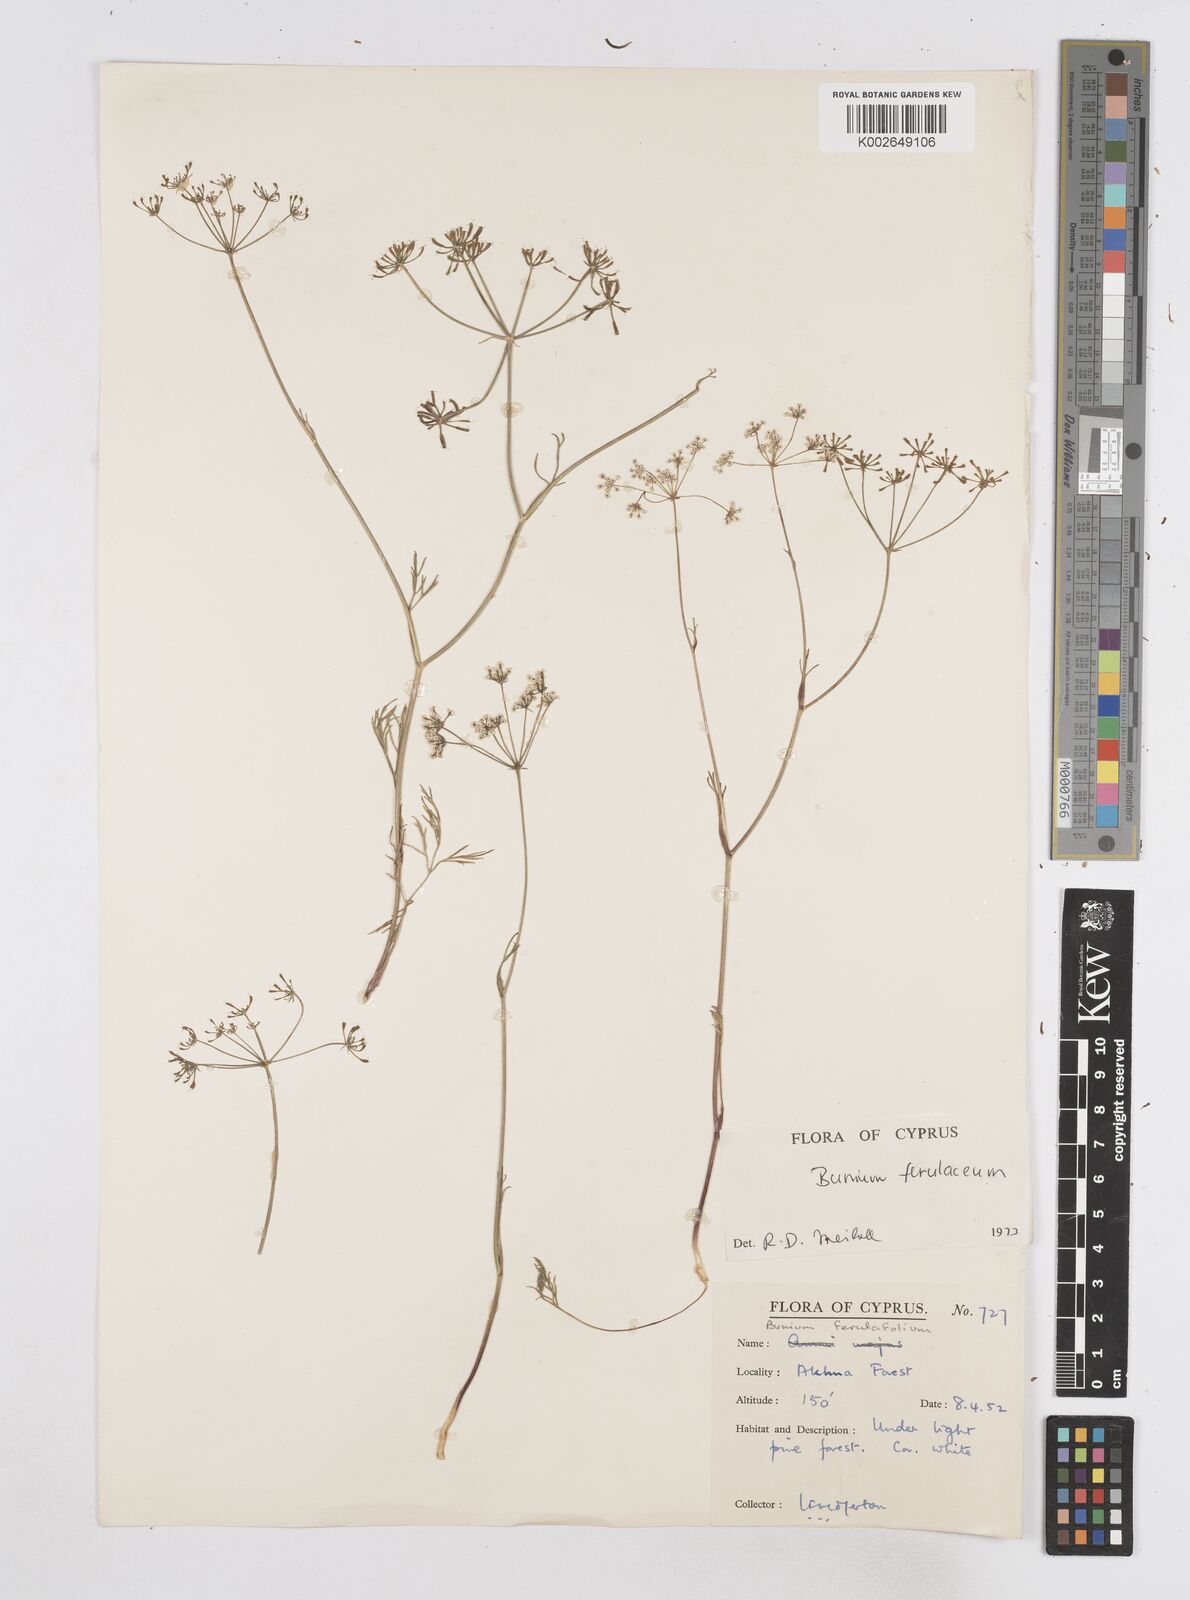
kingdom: Plantae
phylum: Tracheophyta
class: Magnoliopsida
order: Apiales
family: Apiaceae
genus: Bunium
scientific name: Bunium ferulaceum
